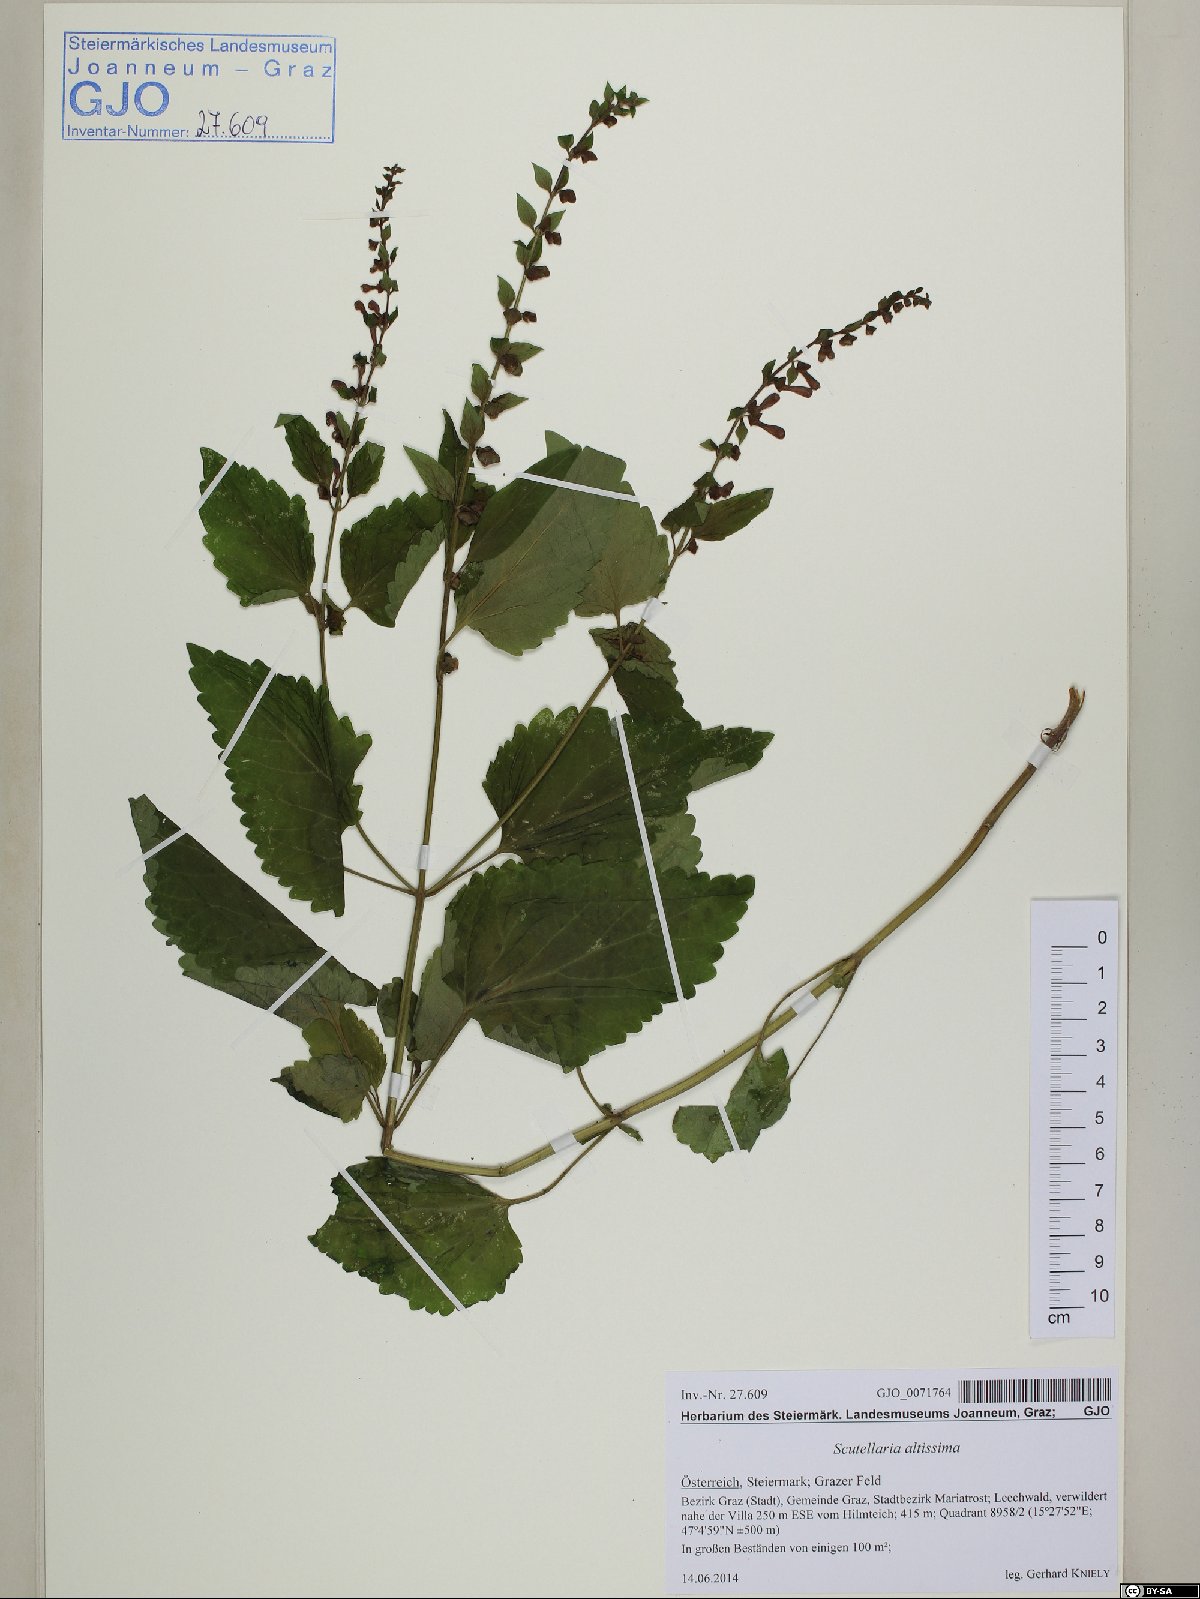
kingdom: Plantae
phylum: Tracheophyta
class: Magnoliopsida
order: Lamiales
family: Lamiaceae
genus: Scutellaria
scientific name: Scutellaria altissima
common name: Somerset skullcap
